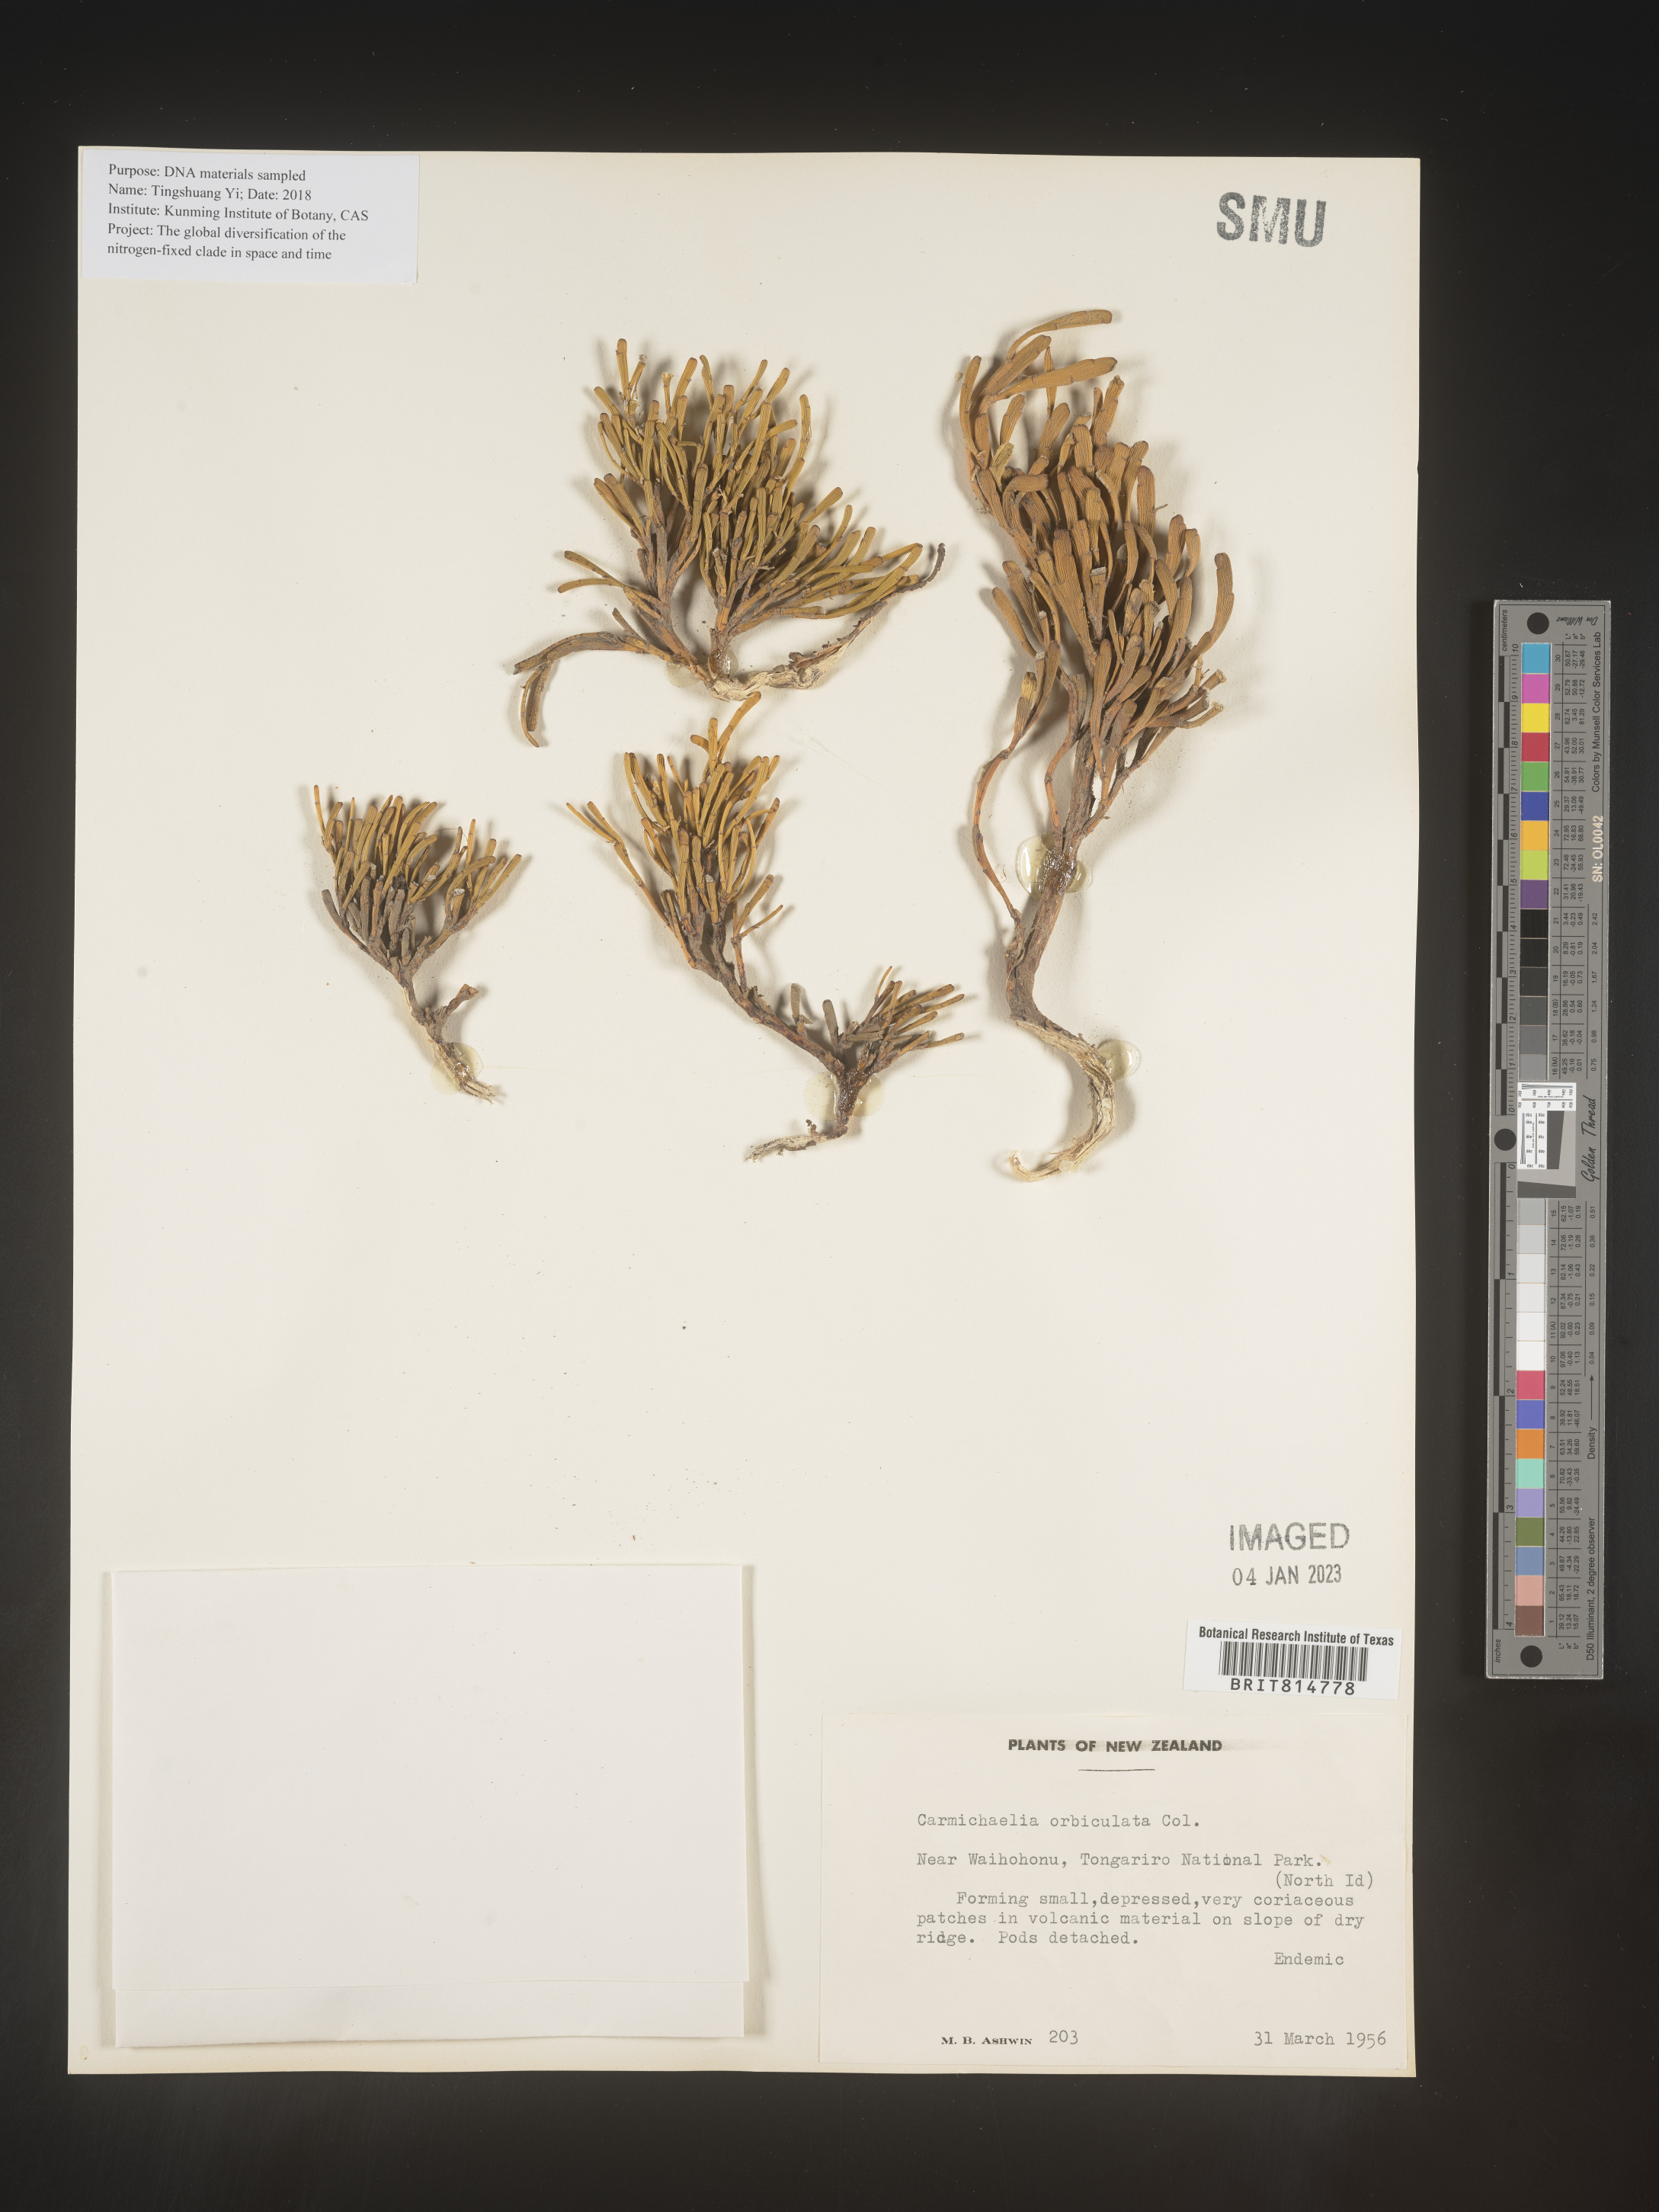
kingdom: Plantae
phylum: Tracheophyta
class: Magnoliopsida
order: Fabales
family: Fabaceae
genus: Carmichaelia
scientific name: Carmichaelia
